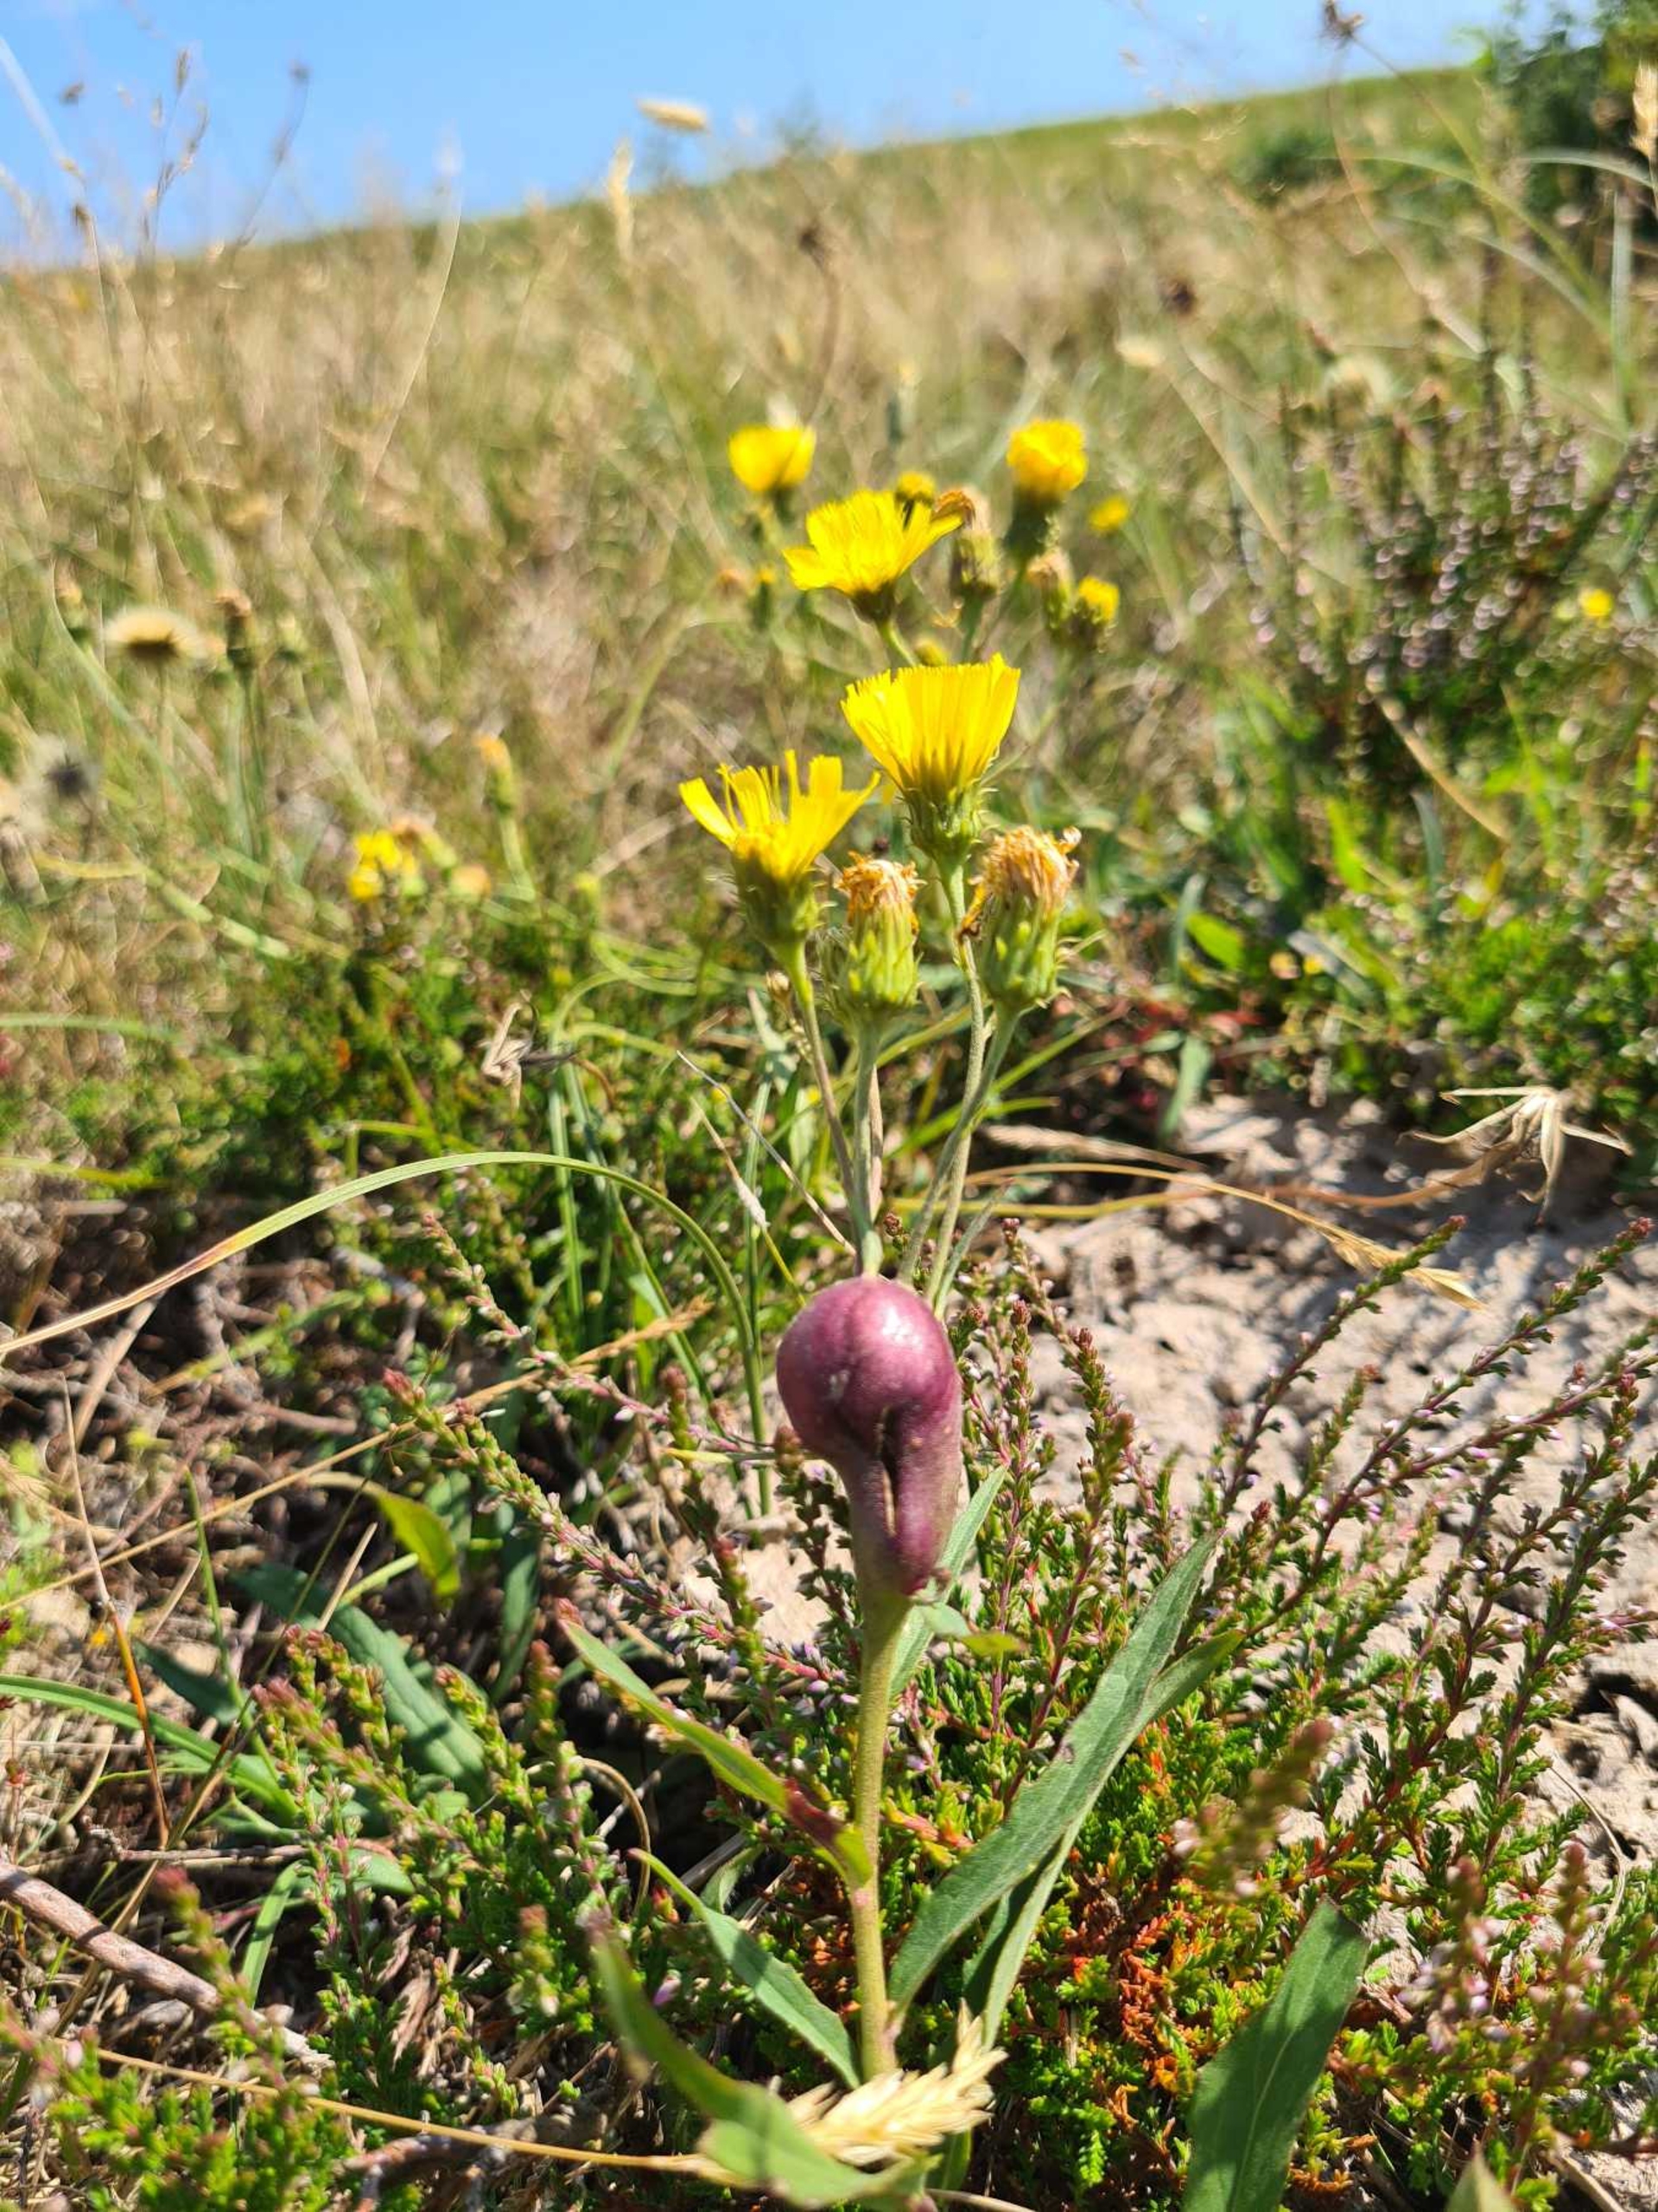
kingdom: Animalia
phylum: Arthropoda
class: Insecta
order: Hymenoptera
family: Cynipidae
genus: Aulacidea
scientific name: Aulacidea hieracii
